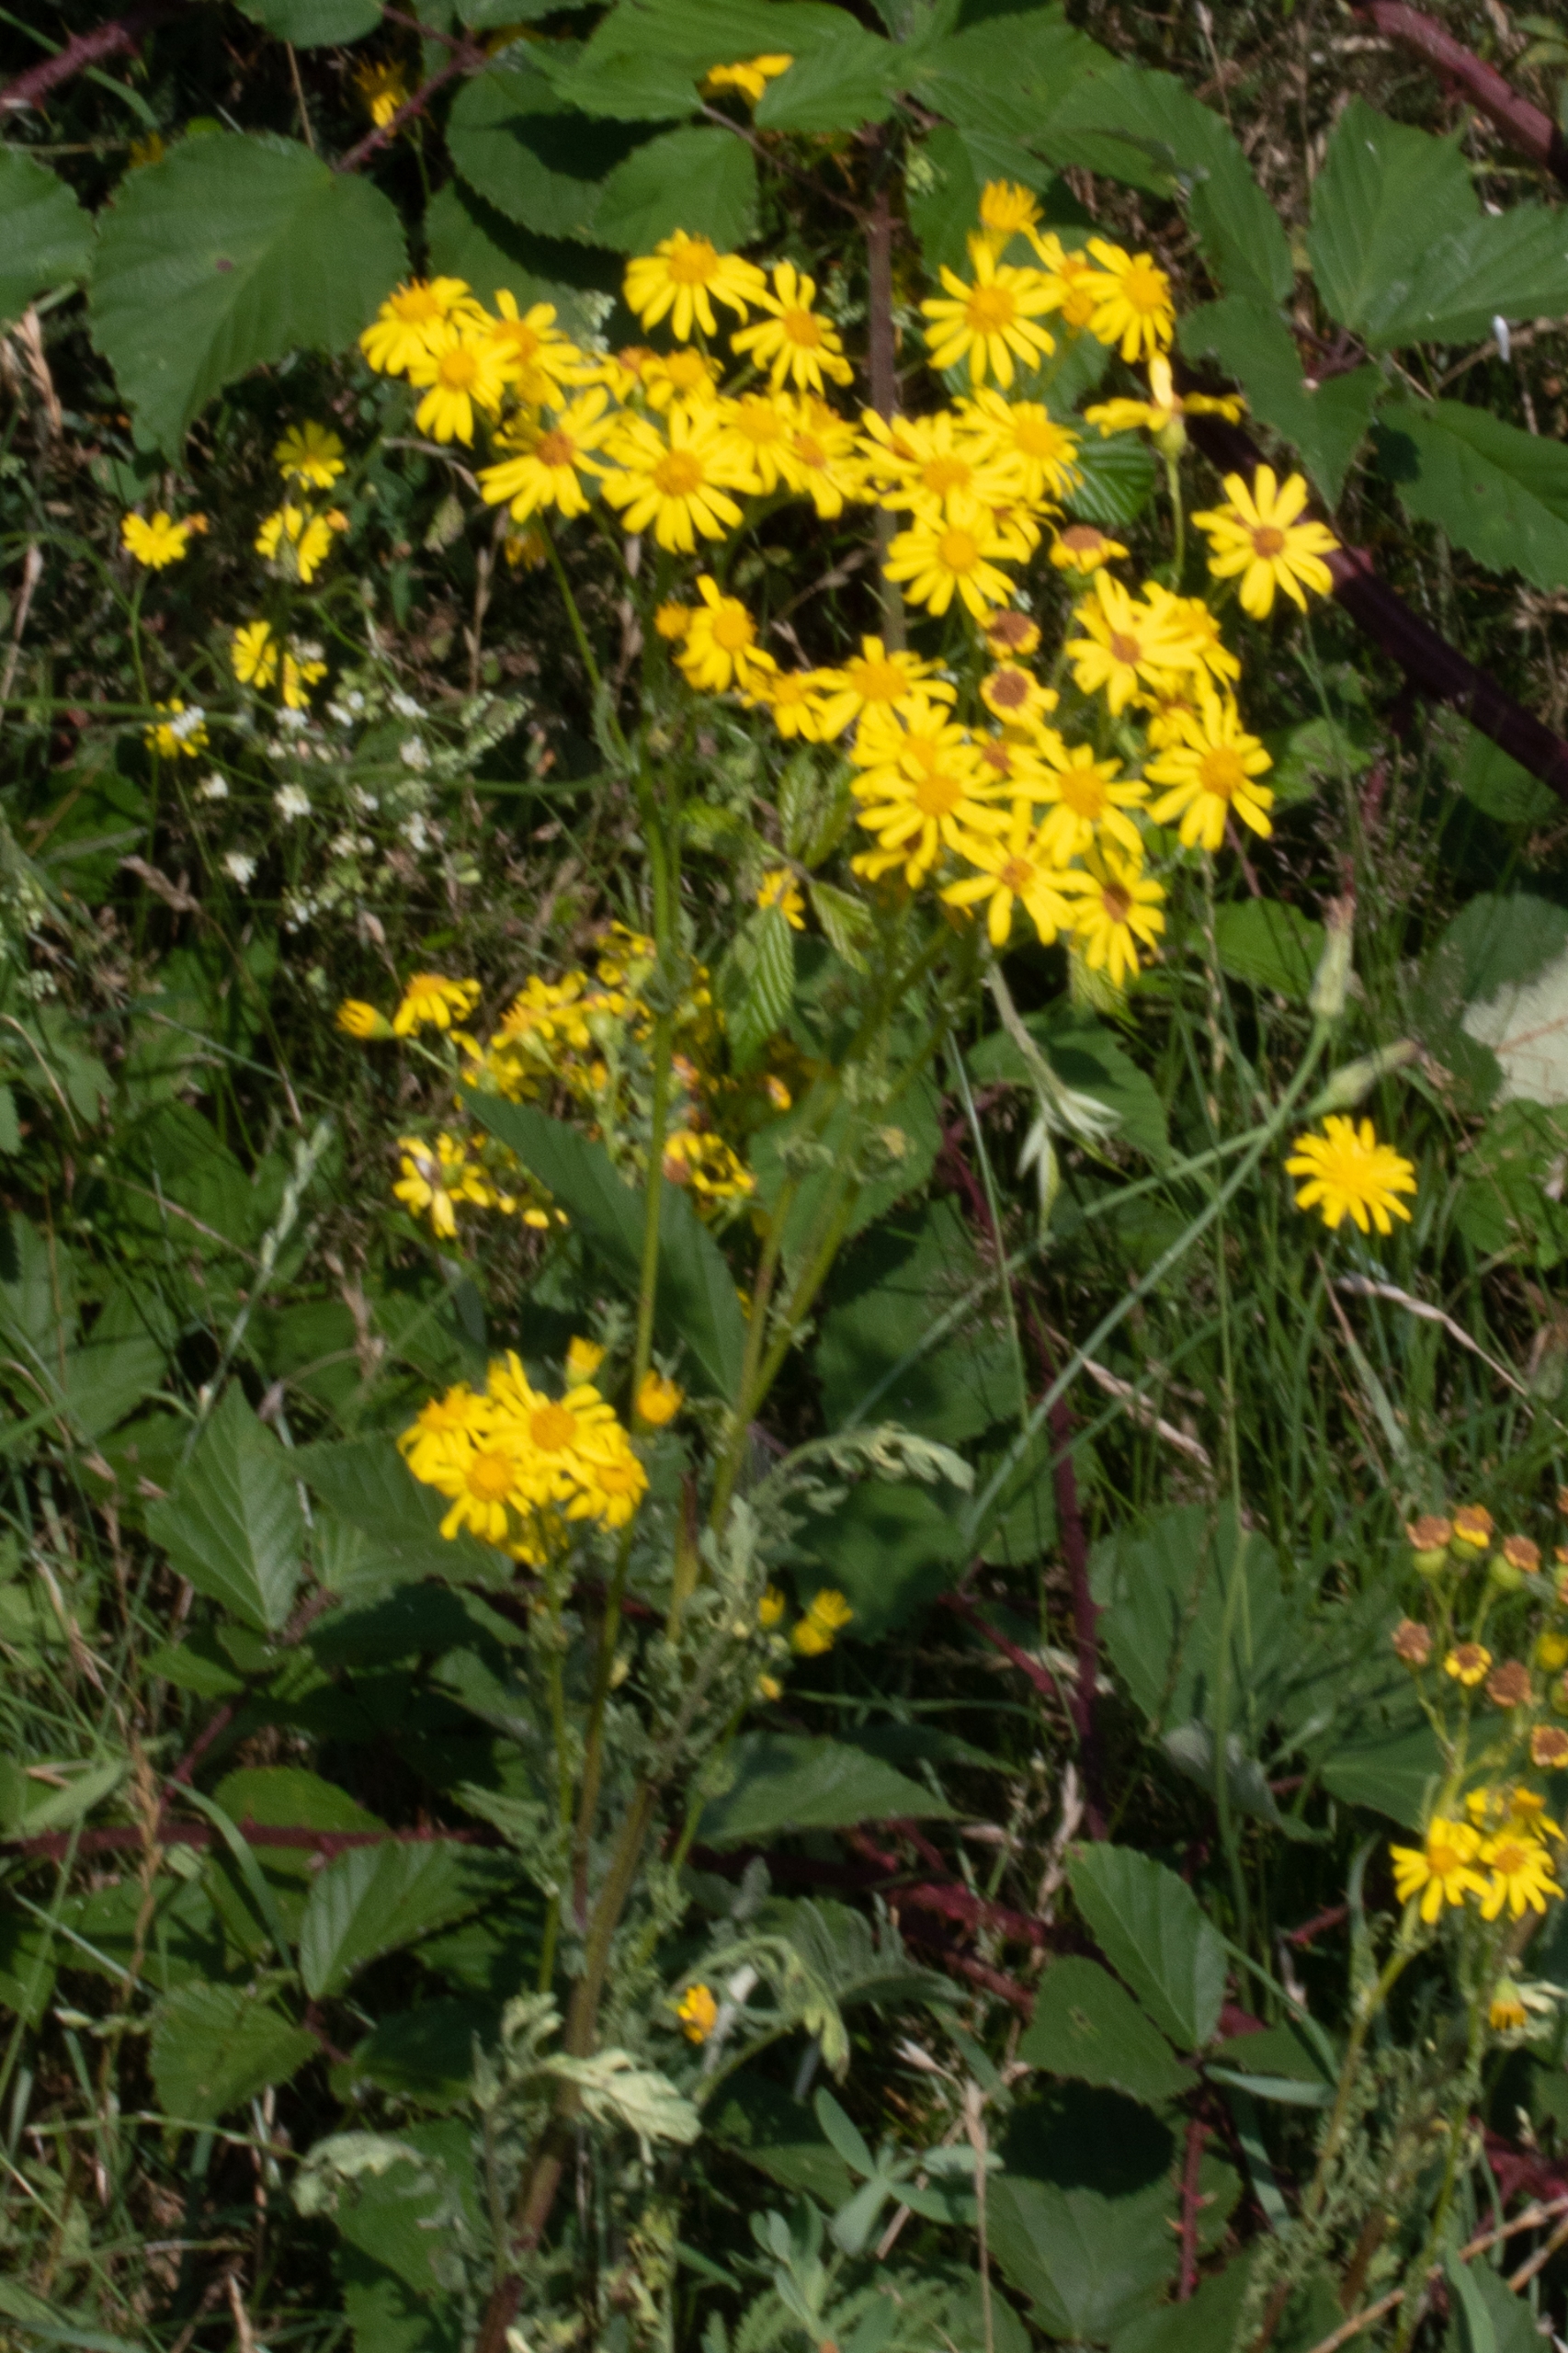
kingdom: Plantae
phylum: Tracheophyta
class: Magnoliopsida
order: Asterales
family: Asteraceae
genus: Jacobaea
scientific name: Jacobaea vulgaris
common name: Eng-brandbæger
